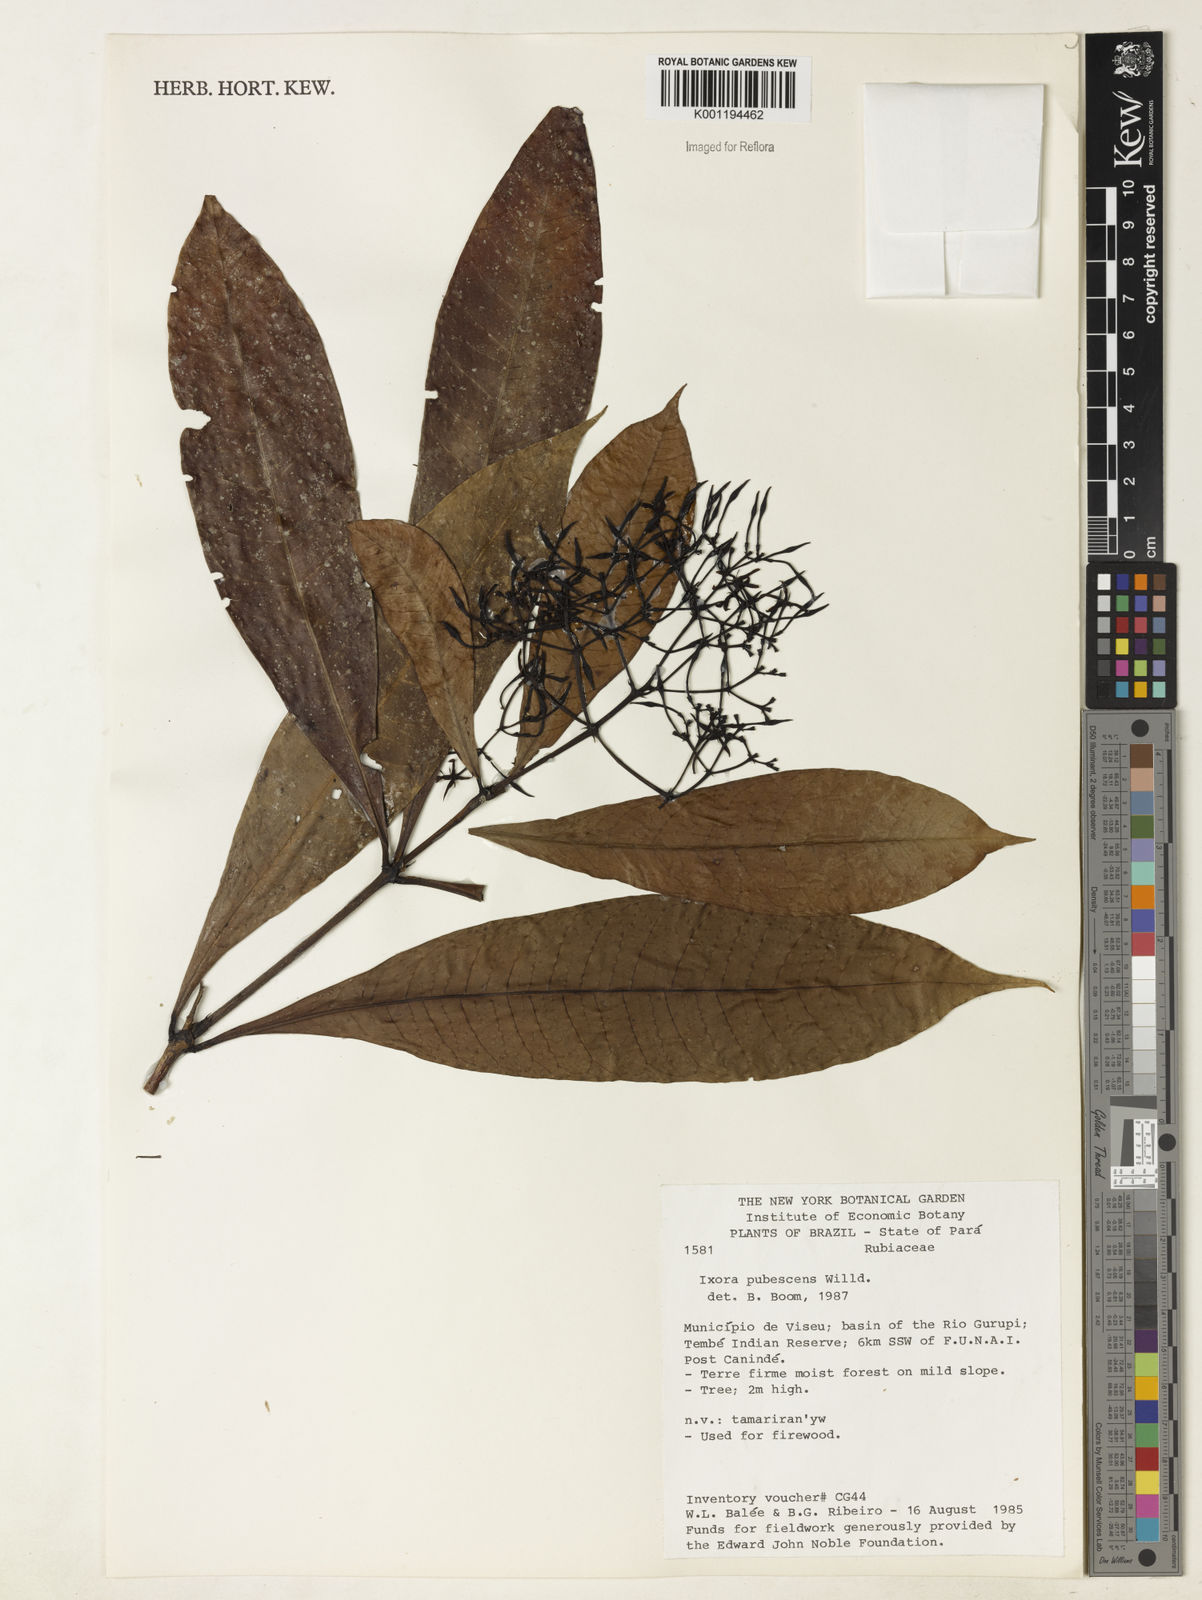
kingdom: Plantae
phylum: Tracheophyta
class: Magnoliopsida
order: Gentianales
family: Rubiaceae
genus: Ixora
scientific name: Ixora
